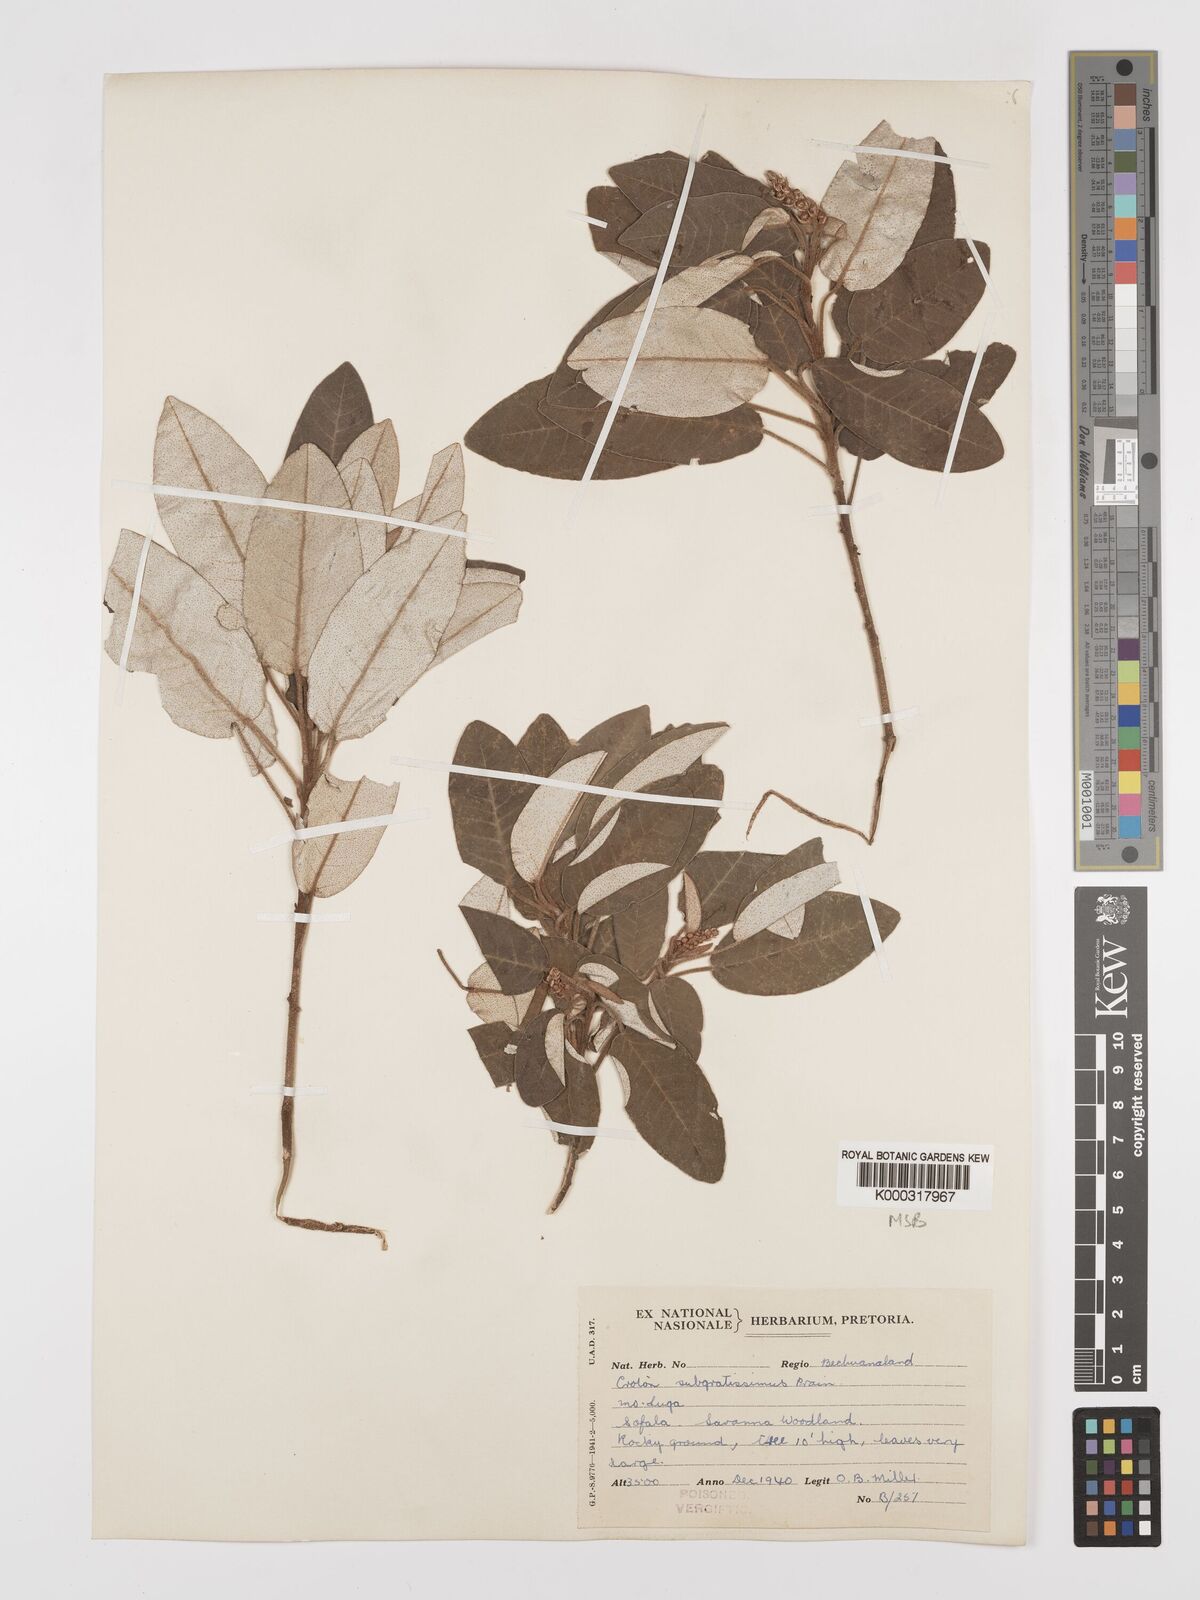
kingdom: Plantae
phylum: Tracheophyta
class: Magnoliopsida
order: Malpighiales
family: Euphorbiaceae
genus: Croton
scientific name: Croton gratissimus
